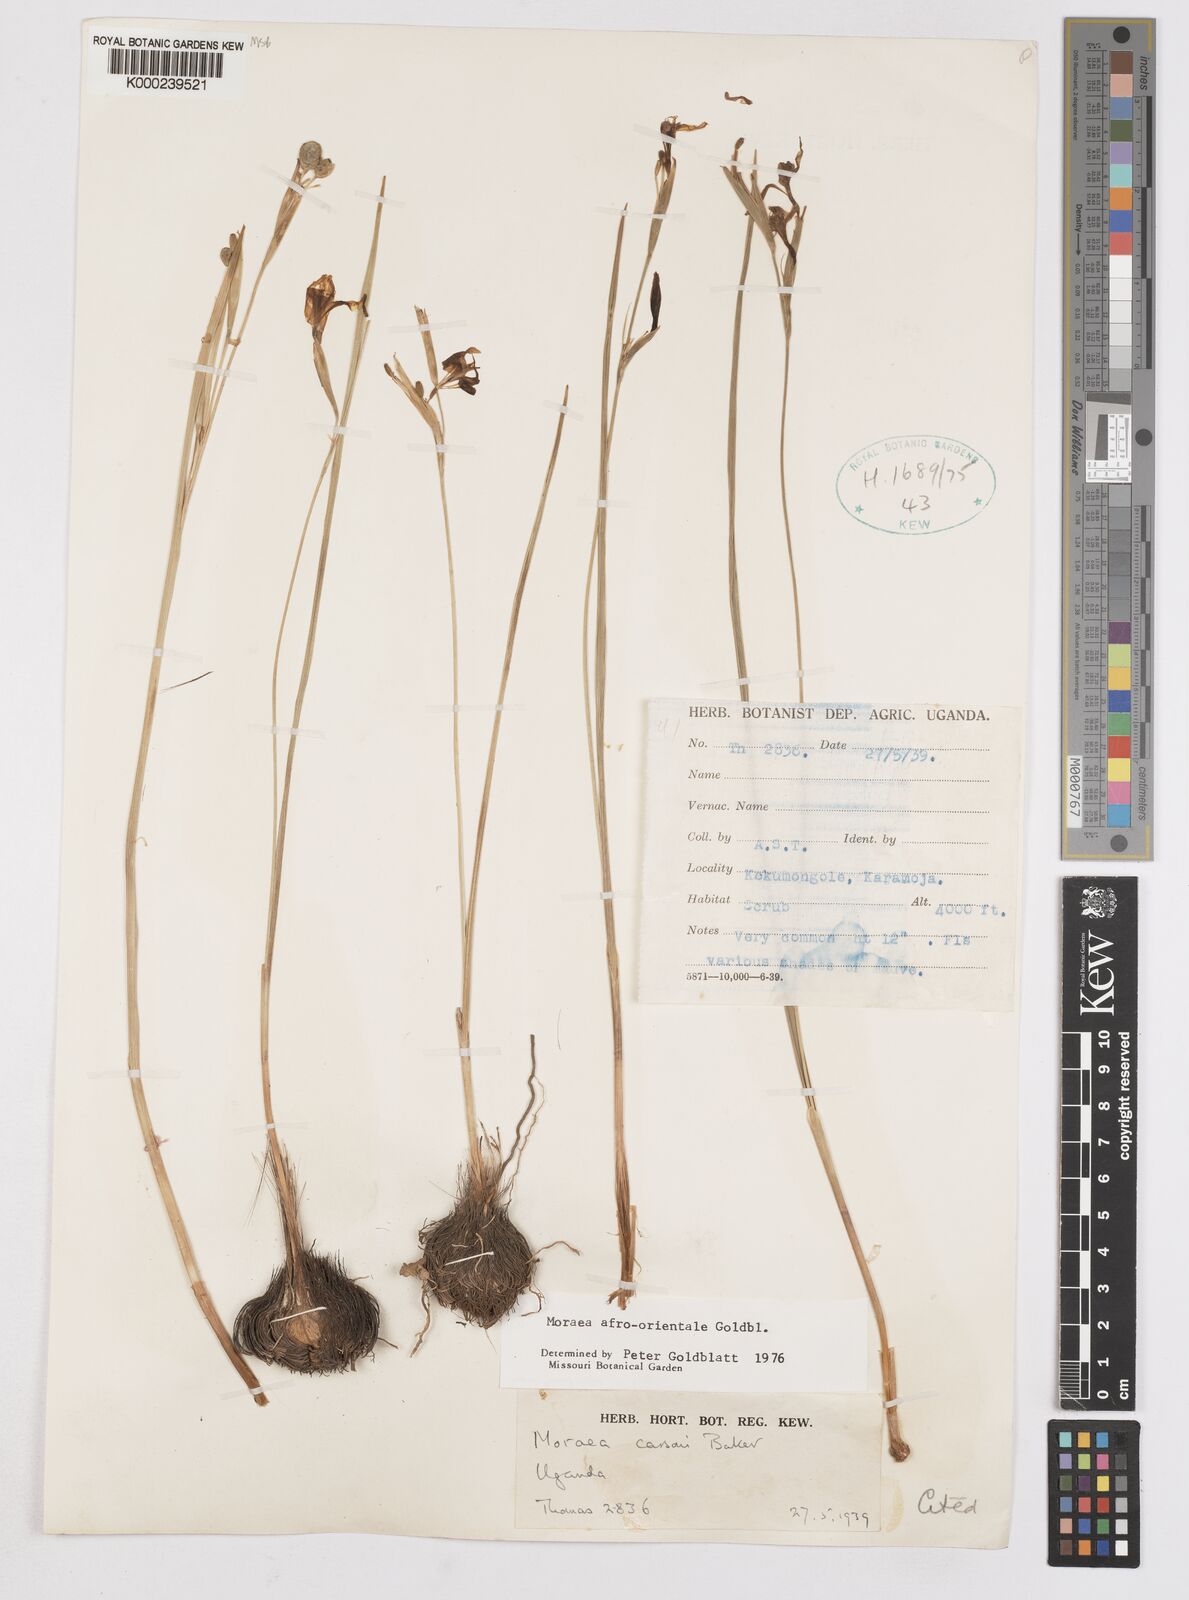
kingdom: Plantae
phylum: Tracheophyta
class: Liliopsida
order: Asparagales
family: Iridaceae
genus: Moraea
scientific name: Moraea
